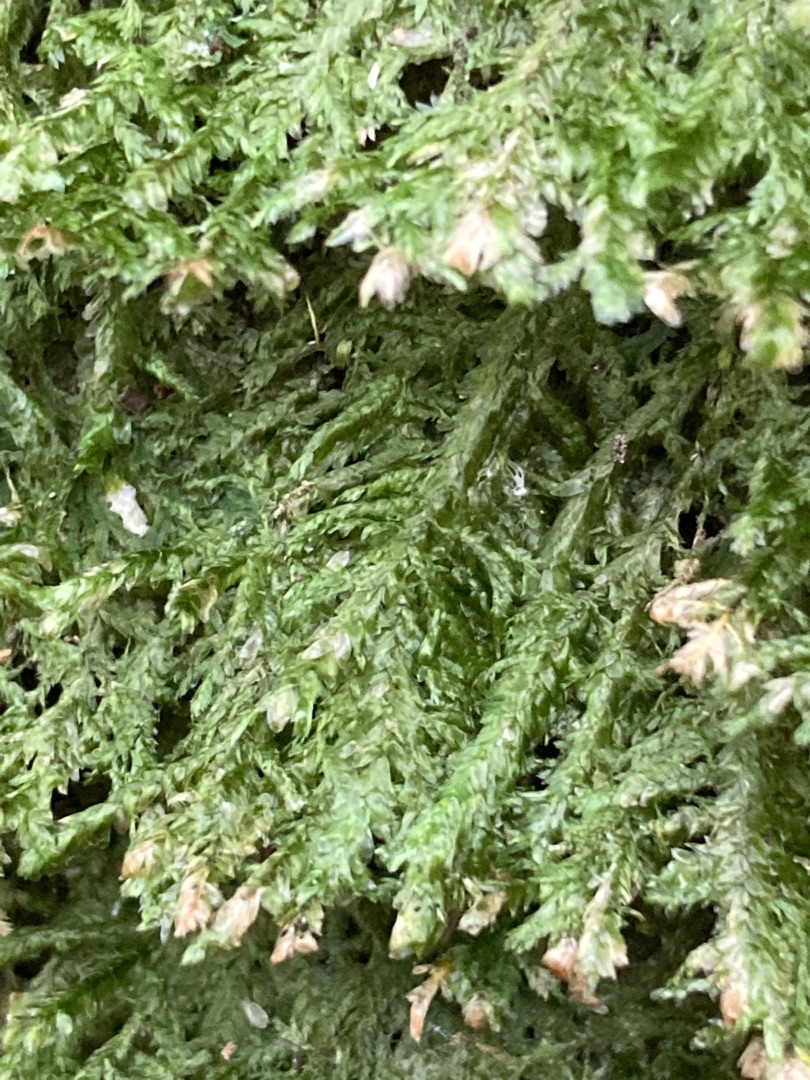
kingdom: Plantae
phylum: Bryophyta
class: Bryopsida
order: Hypnales
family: Neckeraceae
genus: Alleniella
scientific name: Alleniella complanata
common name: Almindelig fladmos
